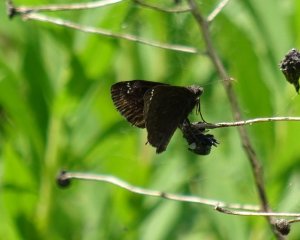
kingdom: Animalia
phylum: Arthropoda
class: Insecta
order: Lepidoptera
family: Hesperiidae
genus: Gesta
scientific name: Gesta
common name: Columbine Duskywing
